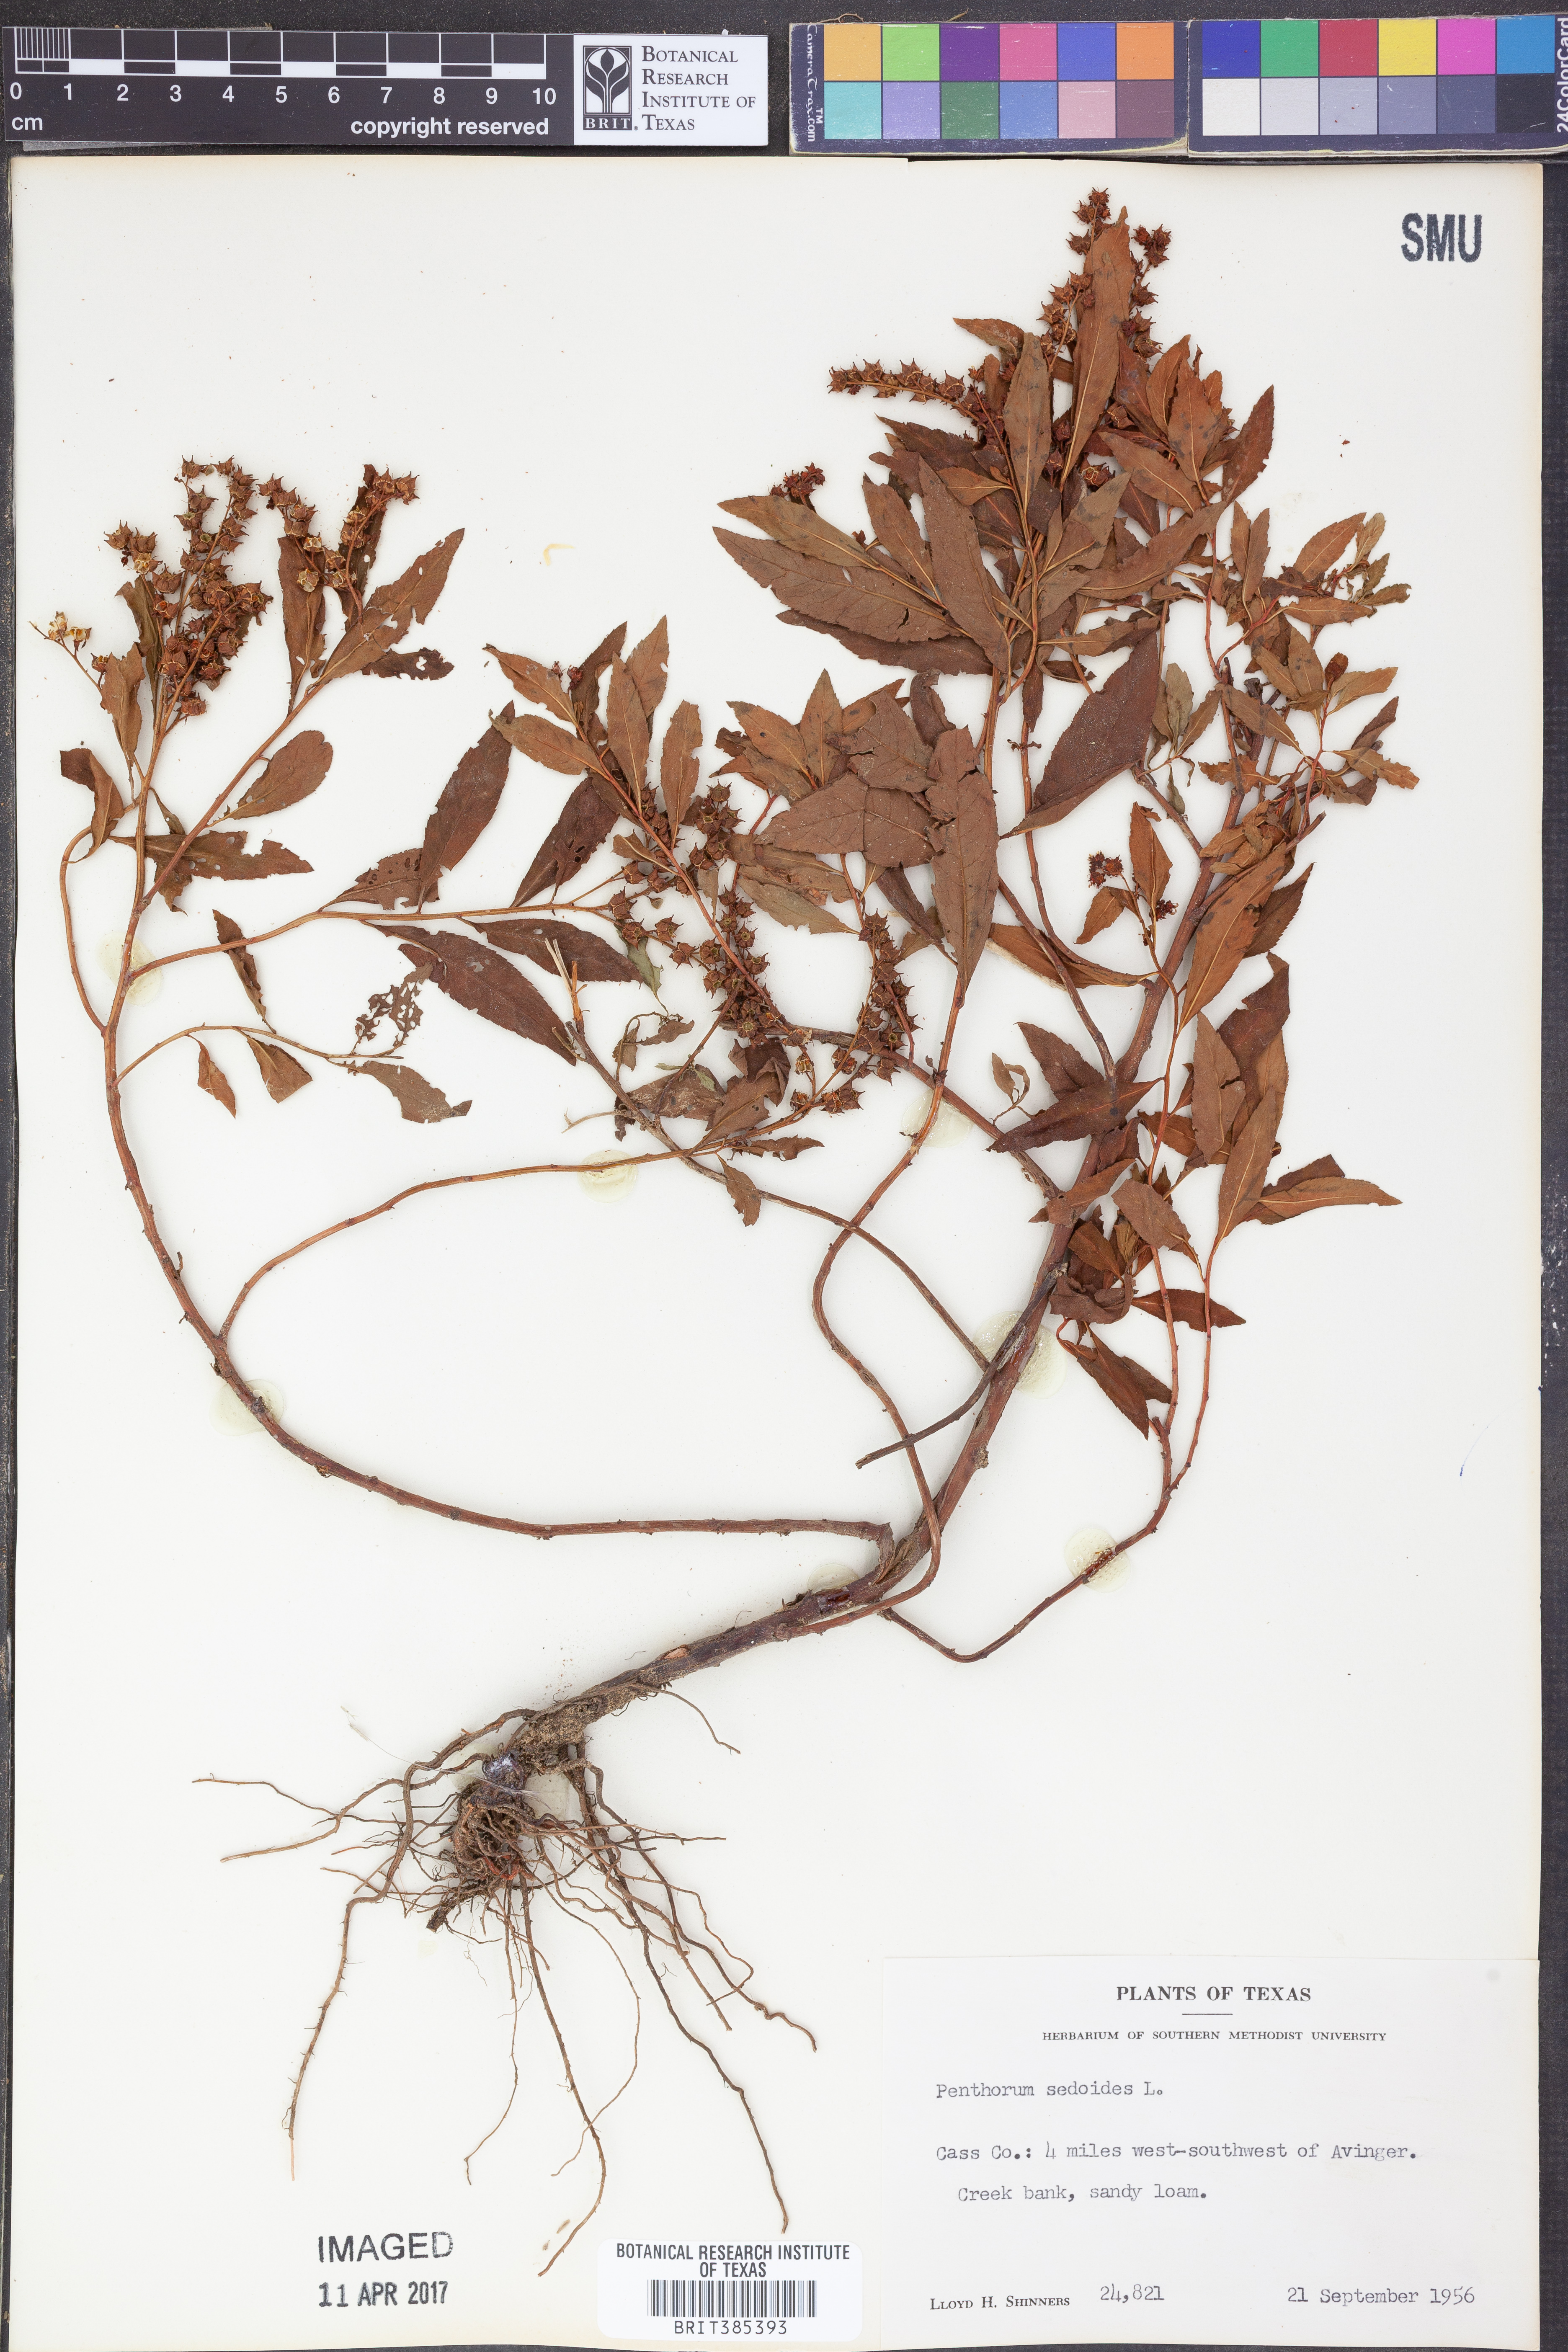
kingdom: Plantae
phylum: Tracheophyta
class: Magnoliopsida
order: Saxifragales
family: Penthoraceae
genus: Penthorum
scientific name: Penthorum sedoides
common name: Ditch stonecrop
